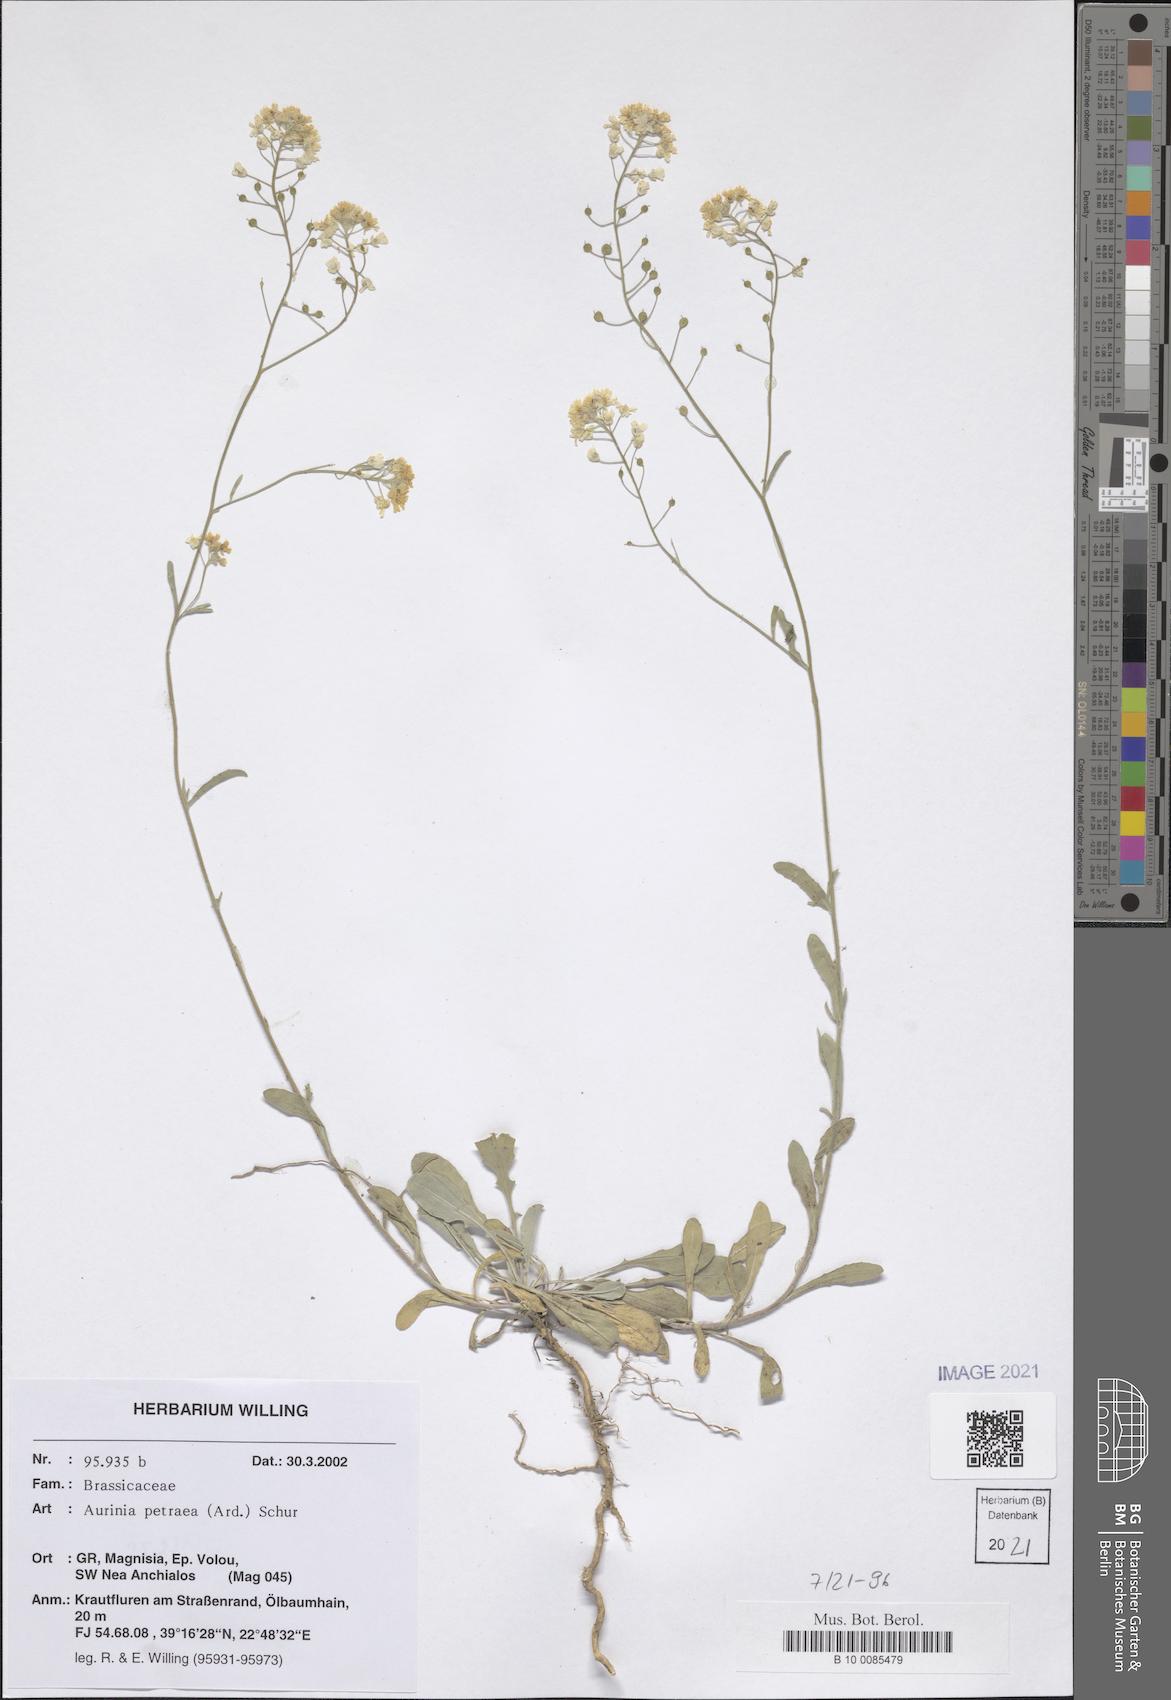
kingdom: Plantae
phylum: Tracheophyta
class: Magnoliopsida
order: Brassicales
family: Brassicaceae
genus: Aurinia
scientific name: Aurinia petraea
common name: Goldentuft
